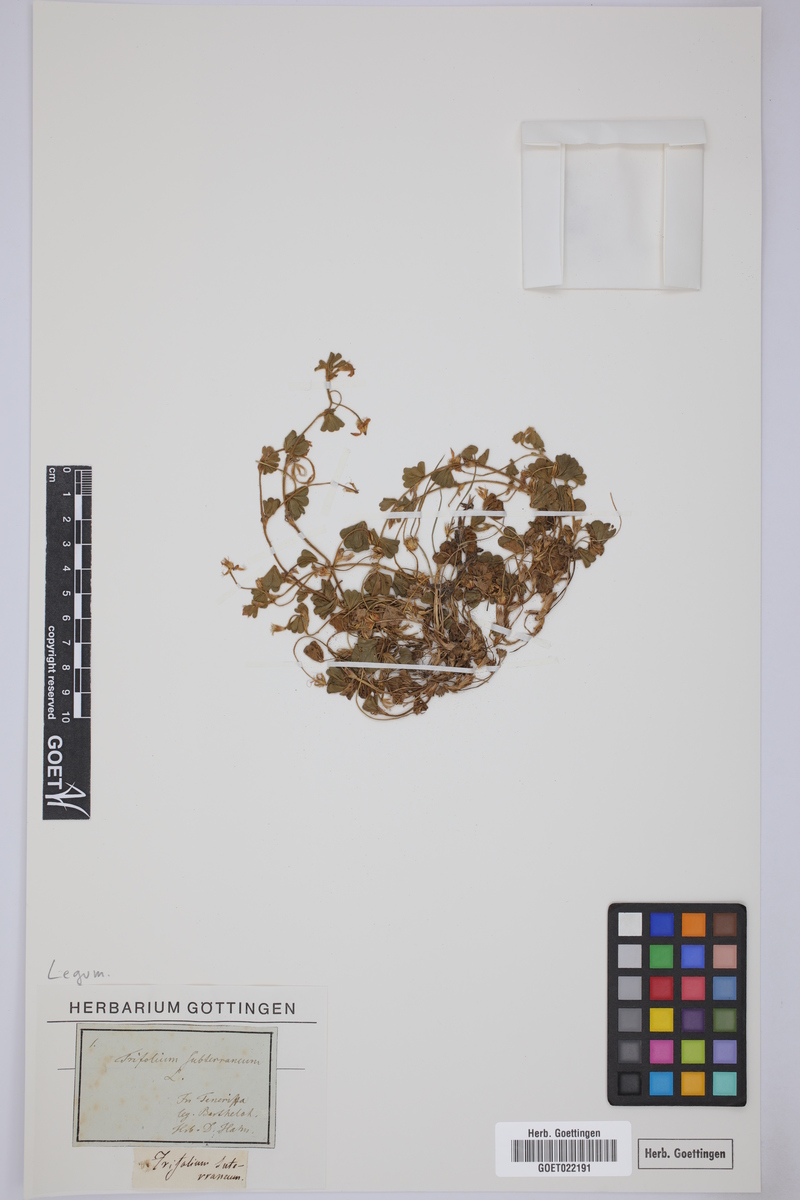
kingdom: Plantae
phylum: Tracheophyta
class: Magnoliopsida
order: Fabales
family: Fabaceae
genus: Trifolium
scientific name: Trifolium subterraneum
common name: Subterranean clover
